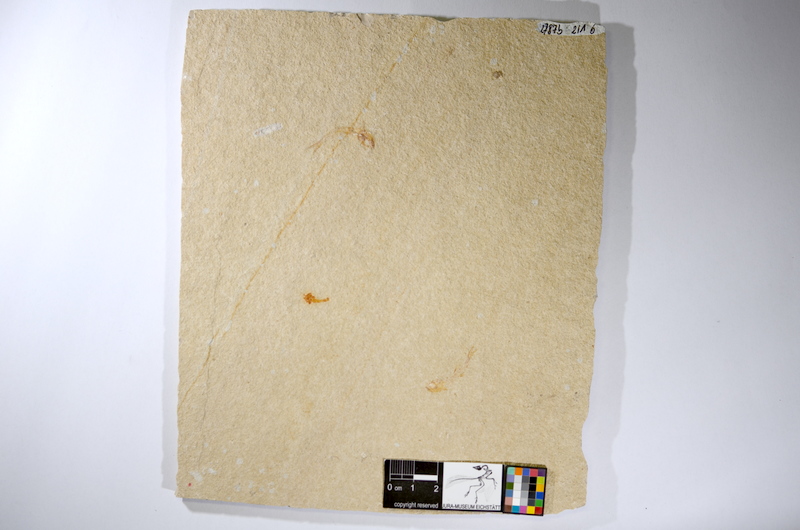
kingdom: Animalia
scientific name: Animalia
